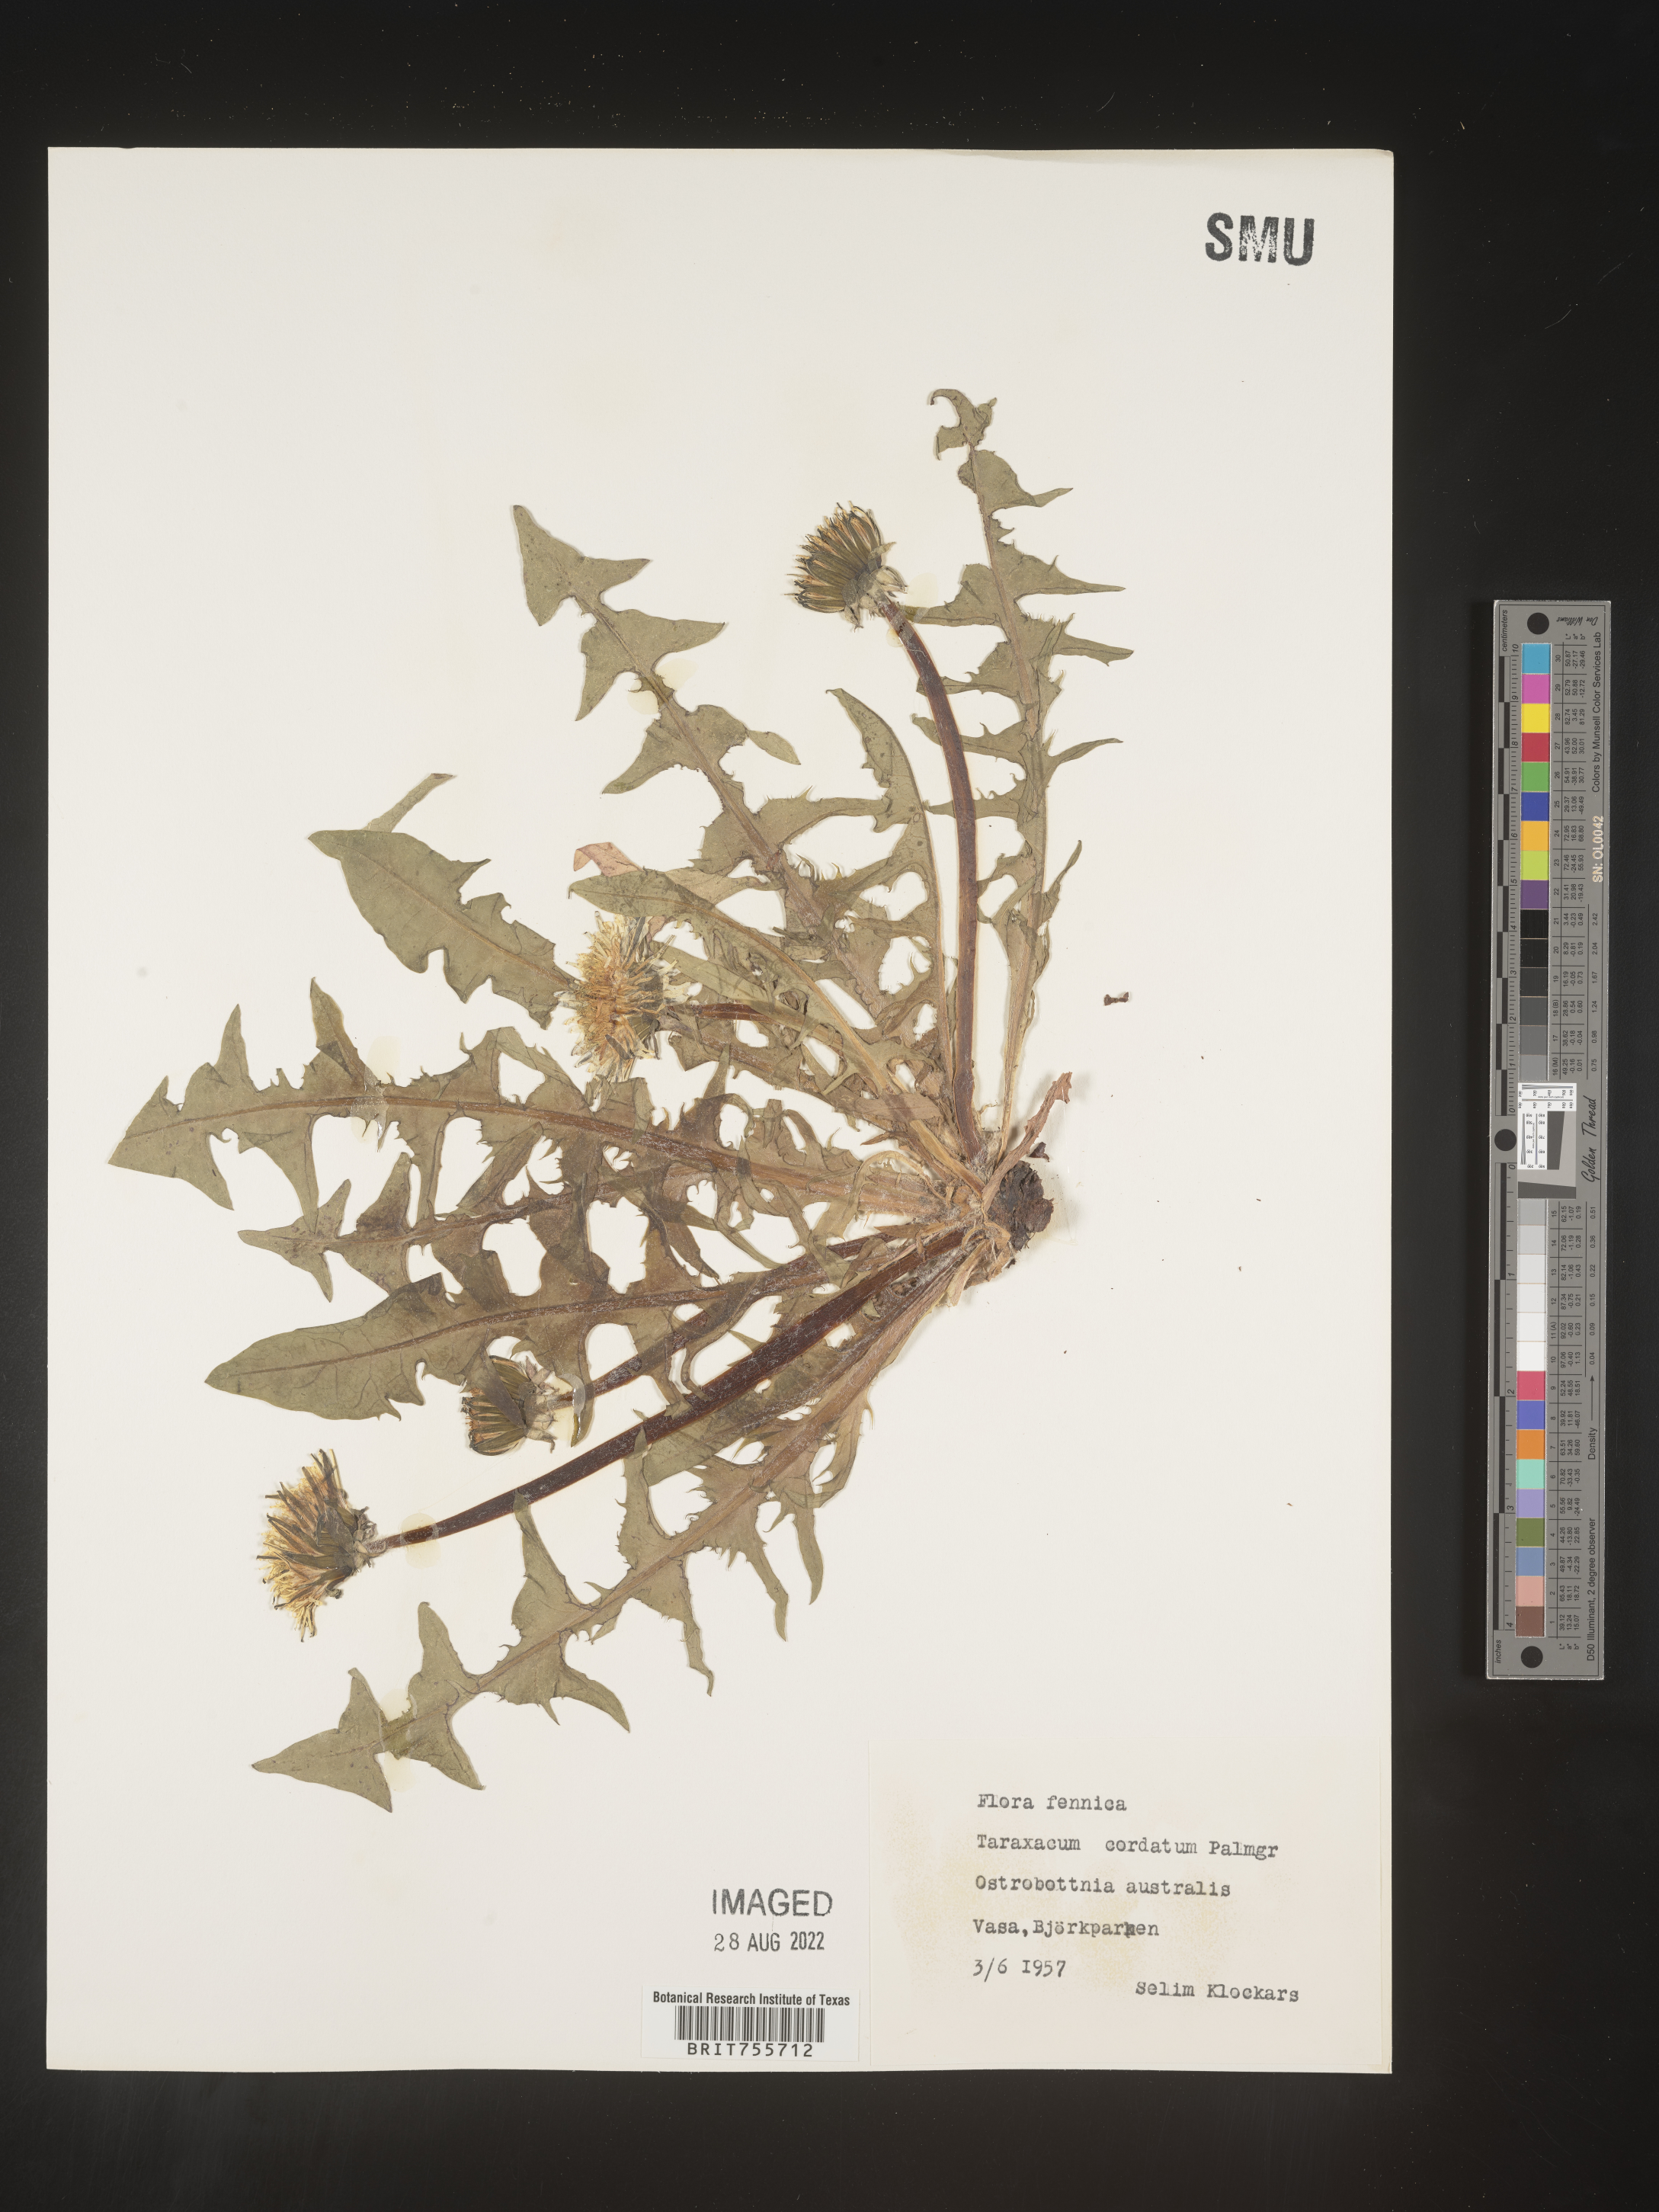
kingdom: Plantae
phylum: Tracheophyta
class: Magnoliopsida
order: Asterales
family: Asteraceae
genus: Taraxacum
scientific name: Taraxacum
